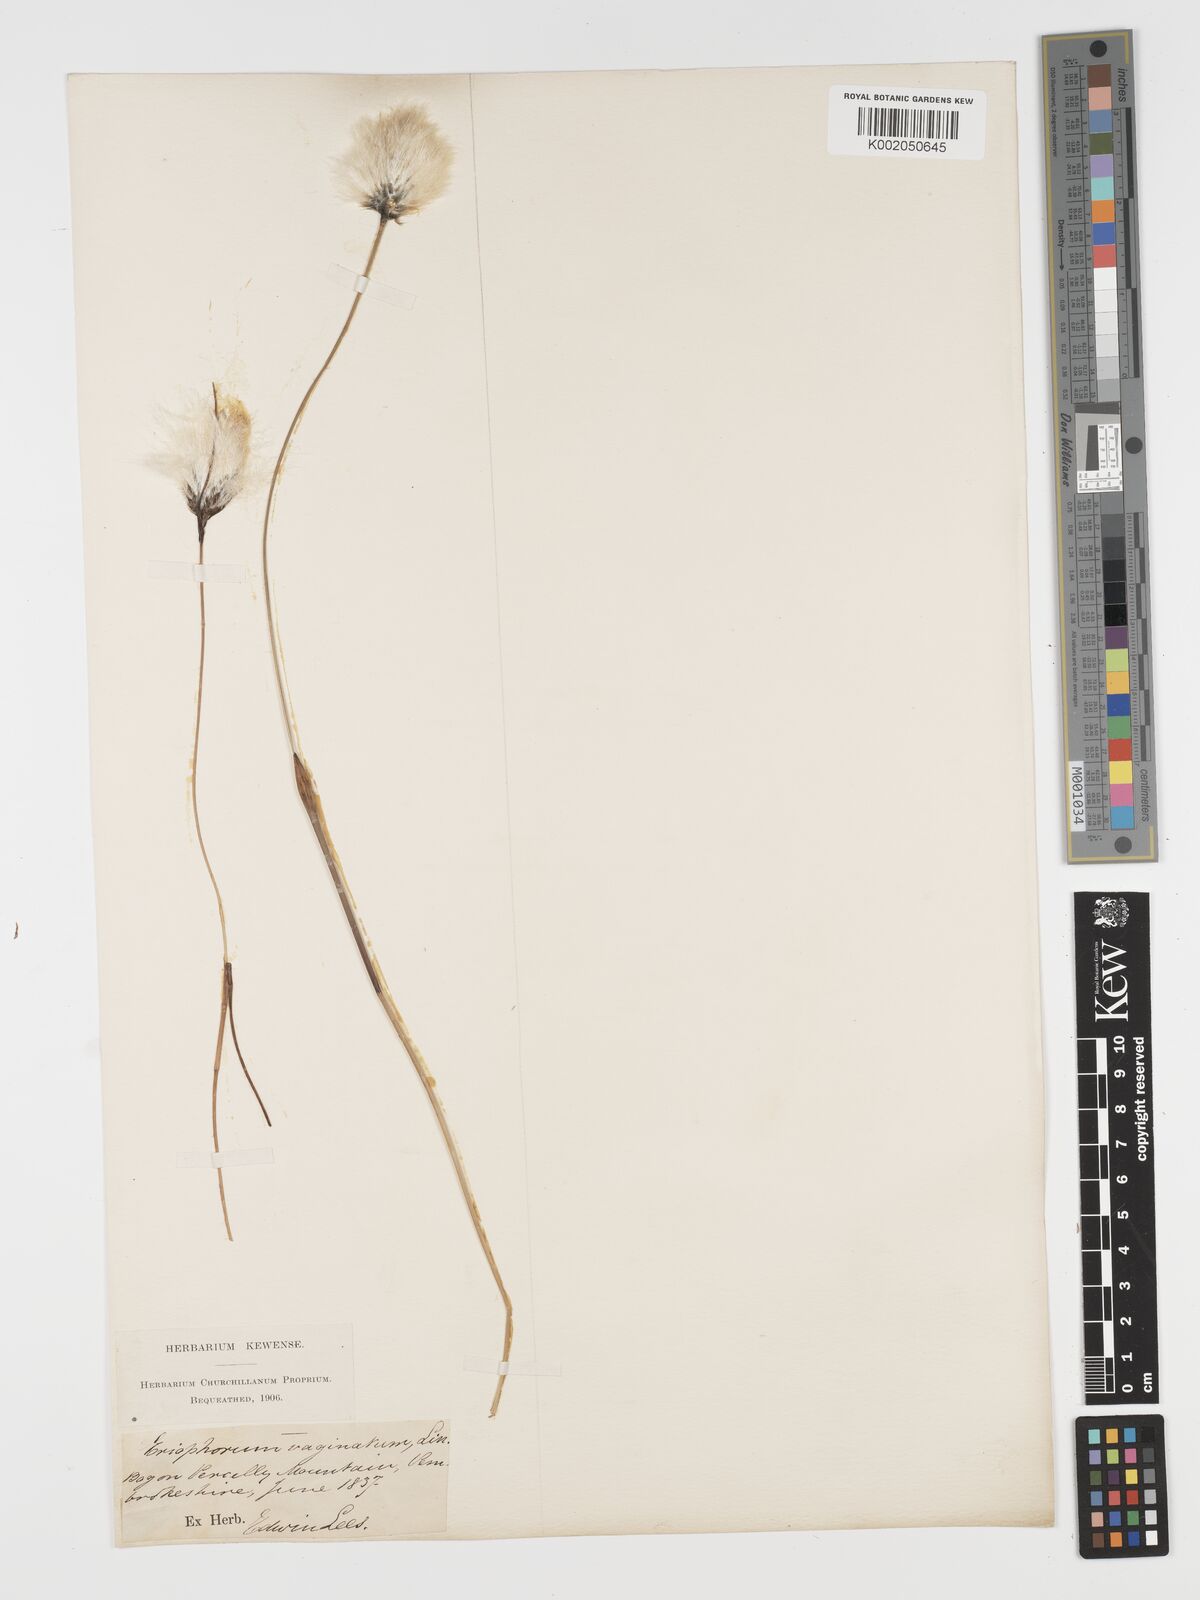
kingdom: Plantae
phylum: Tracheophyta
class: Liliopsida
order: Poales
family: Cyperaceae
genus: Eriophorum
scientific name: Eriophorum vaginatum
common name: Hare's-tail cottongrass
